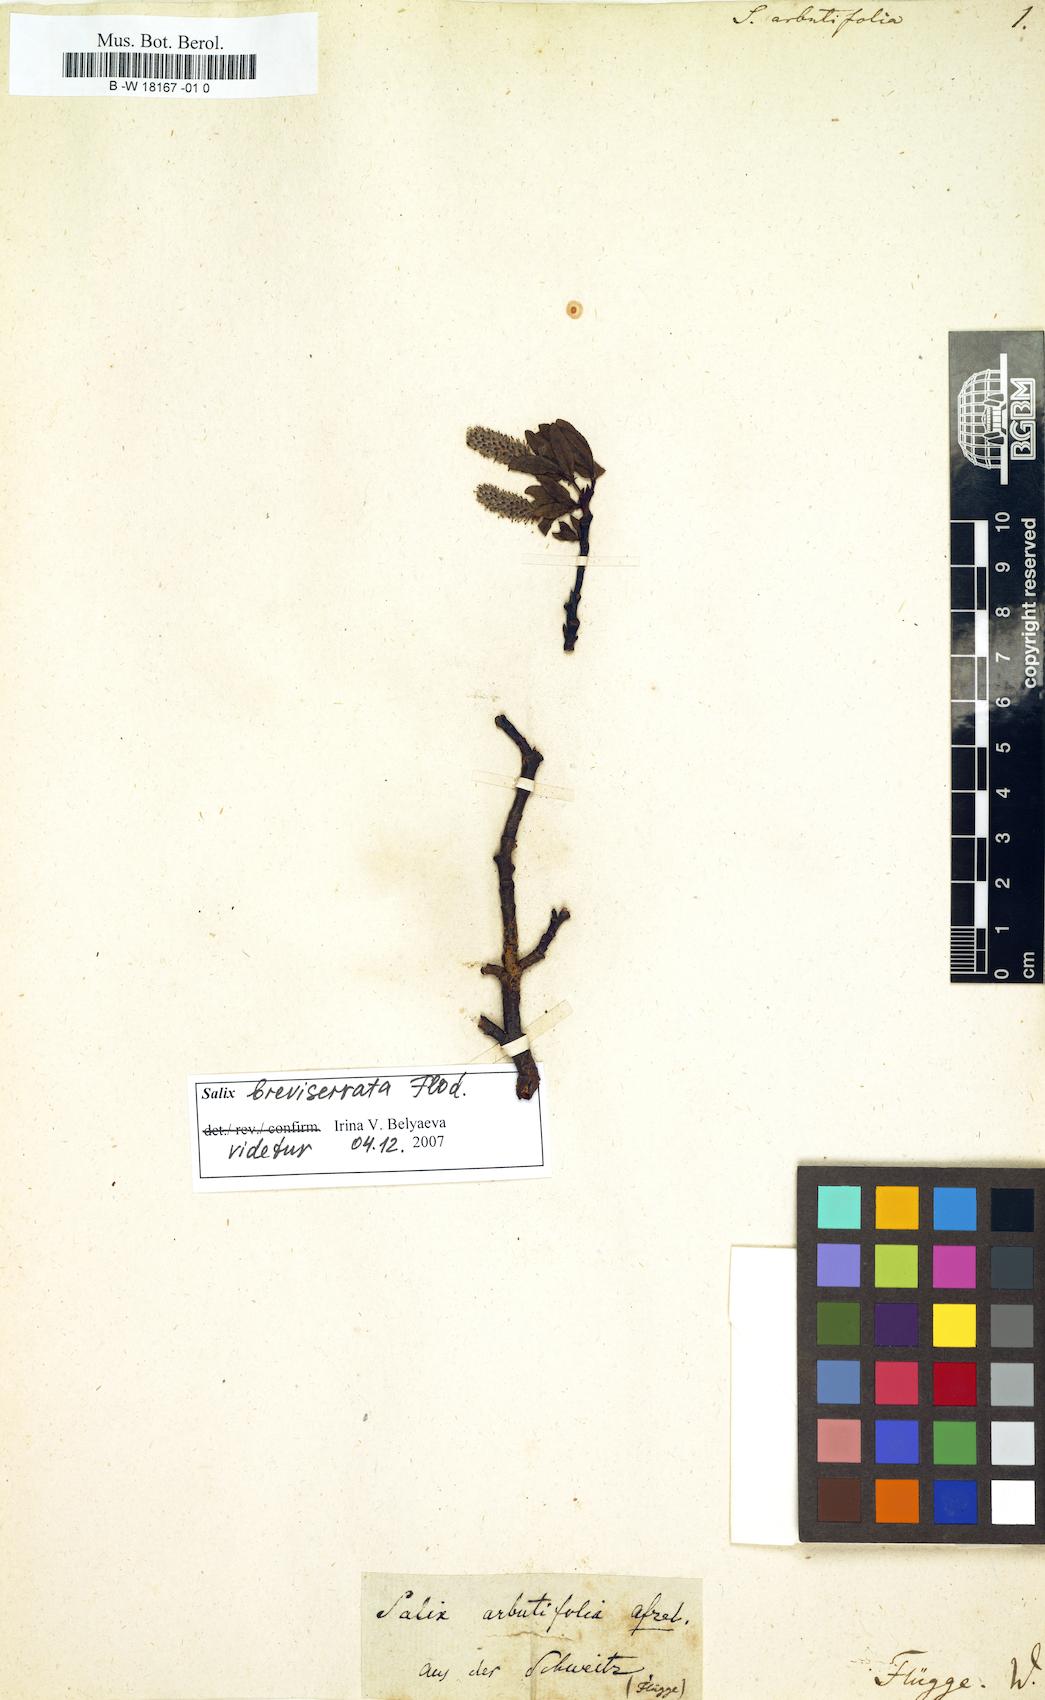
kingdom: Plantae
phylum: Tracheophyta
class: Magnoliopsida
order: Malpighiales
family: Salicaceae
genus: Chosenia
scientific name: Chosenia arbutifolia
